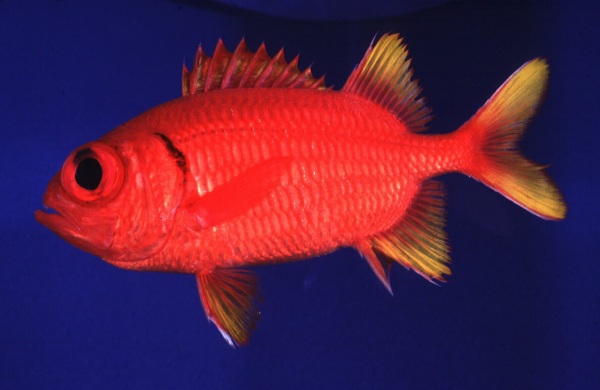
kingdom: Animalia
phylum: Chordata
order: Beryciformes
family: Holocentridae
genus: Myripristis
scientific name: Myripristis chryseres
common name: Golden-finned squirrelfish
